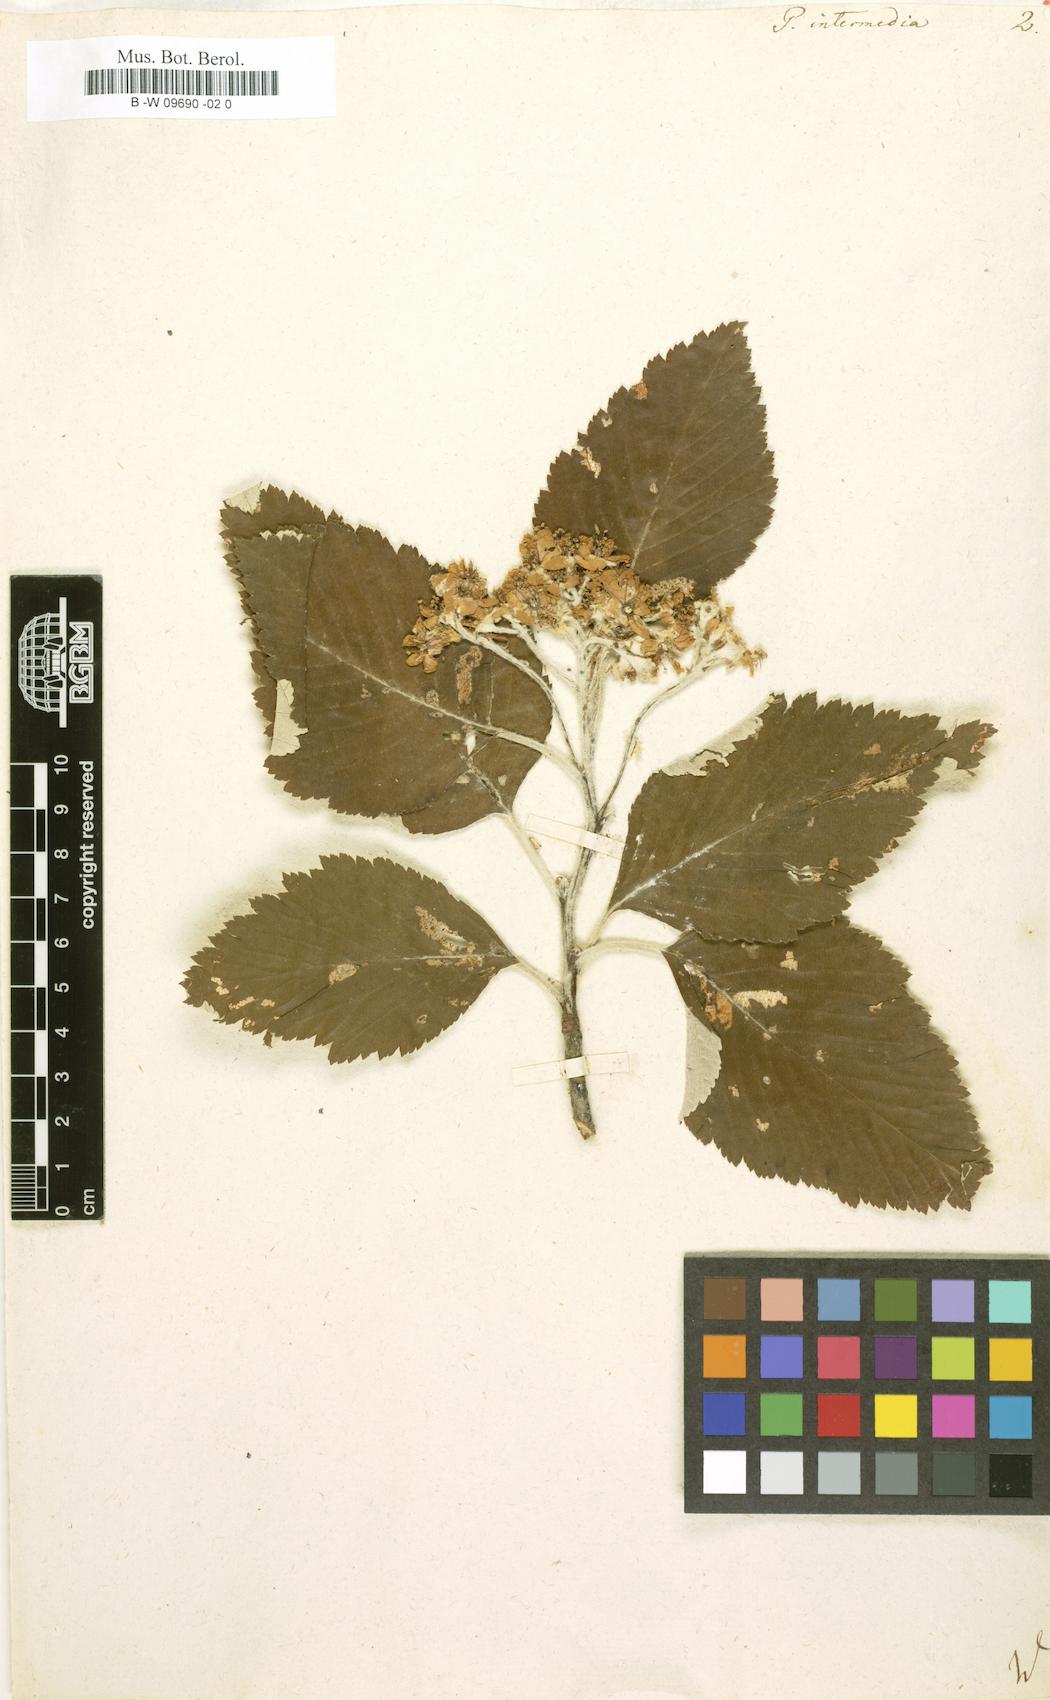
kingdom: Plantae
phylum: Tracheophyta
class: Magnoliopsida
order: Rosales
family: Rosaceae
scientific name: Rosaceae
